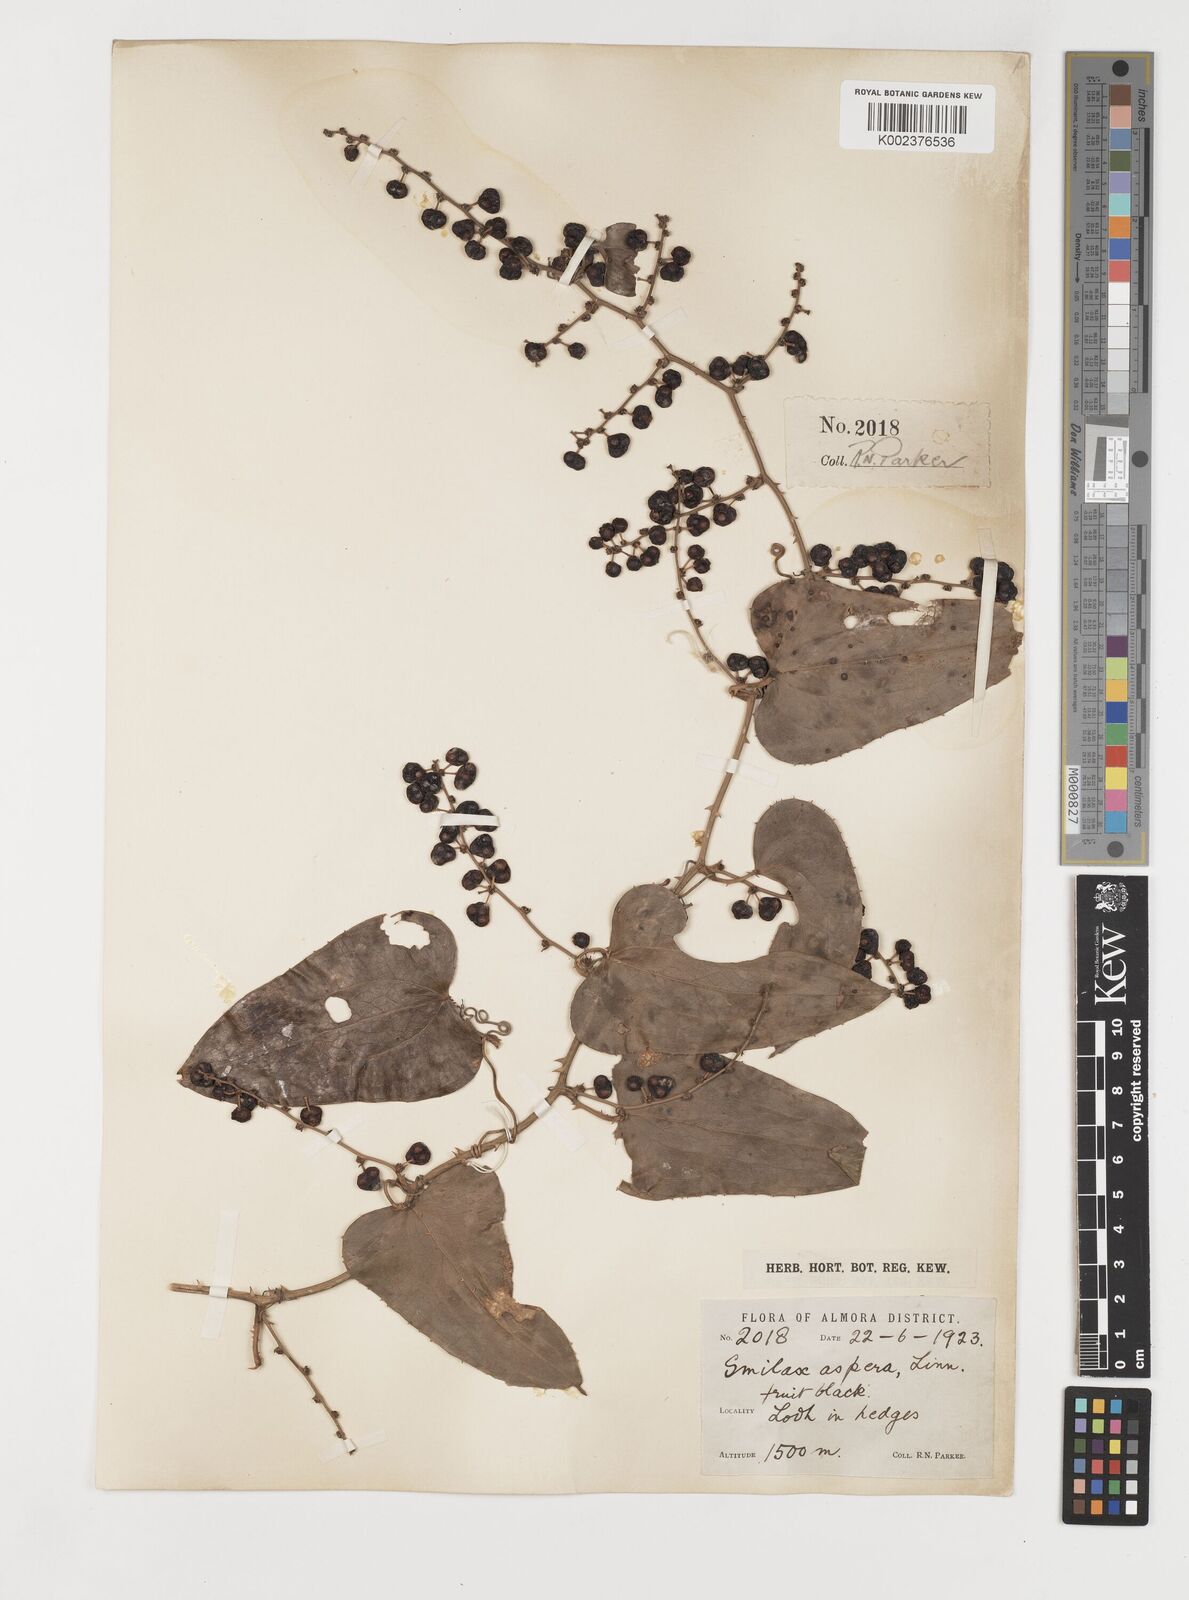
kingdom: Plantae
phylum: Tracheophyta
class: Liliopsida
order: Liliales
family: Smilacaceae
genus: Smilax
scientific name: Smilax aspera
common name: Common smilax
